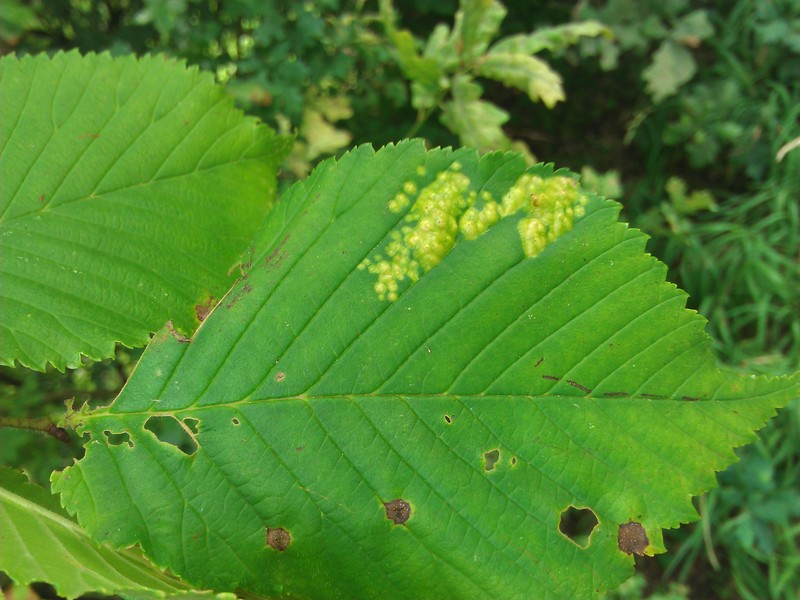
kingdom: Animalia
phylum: Arthropoda
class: Insecta
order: Hemiptera
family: Aphididae
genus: Tetraneura
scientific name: Tetraneura ulmi
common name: Aphid
